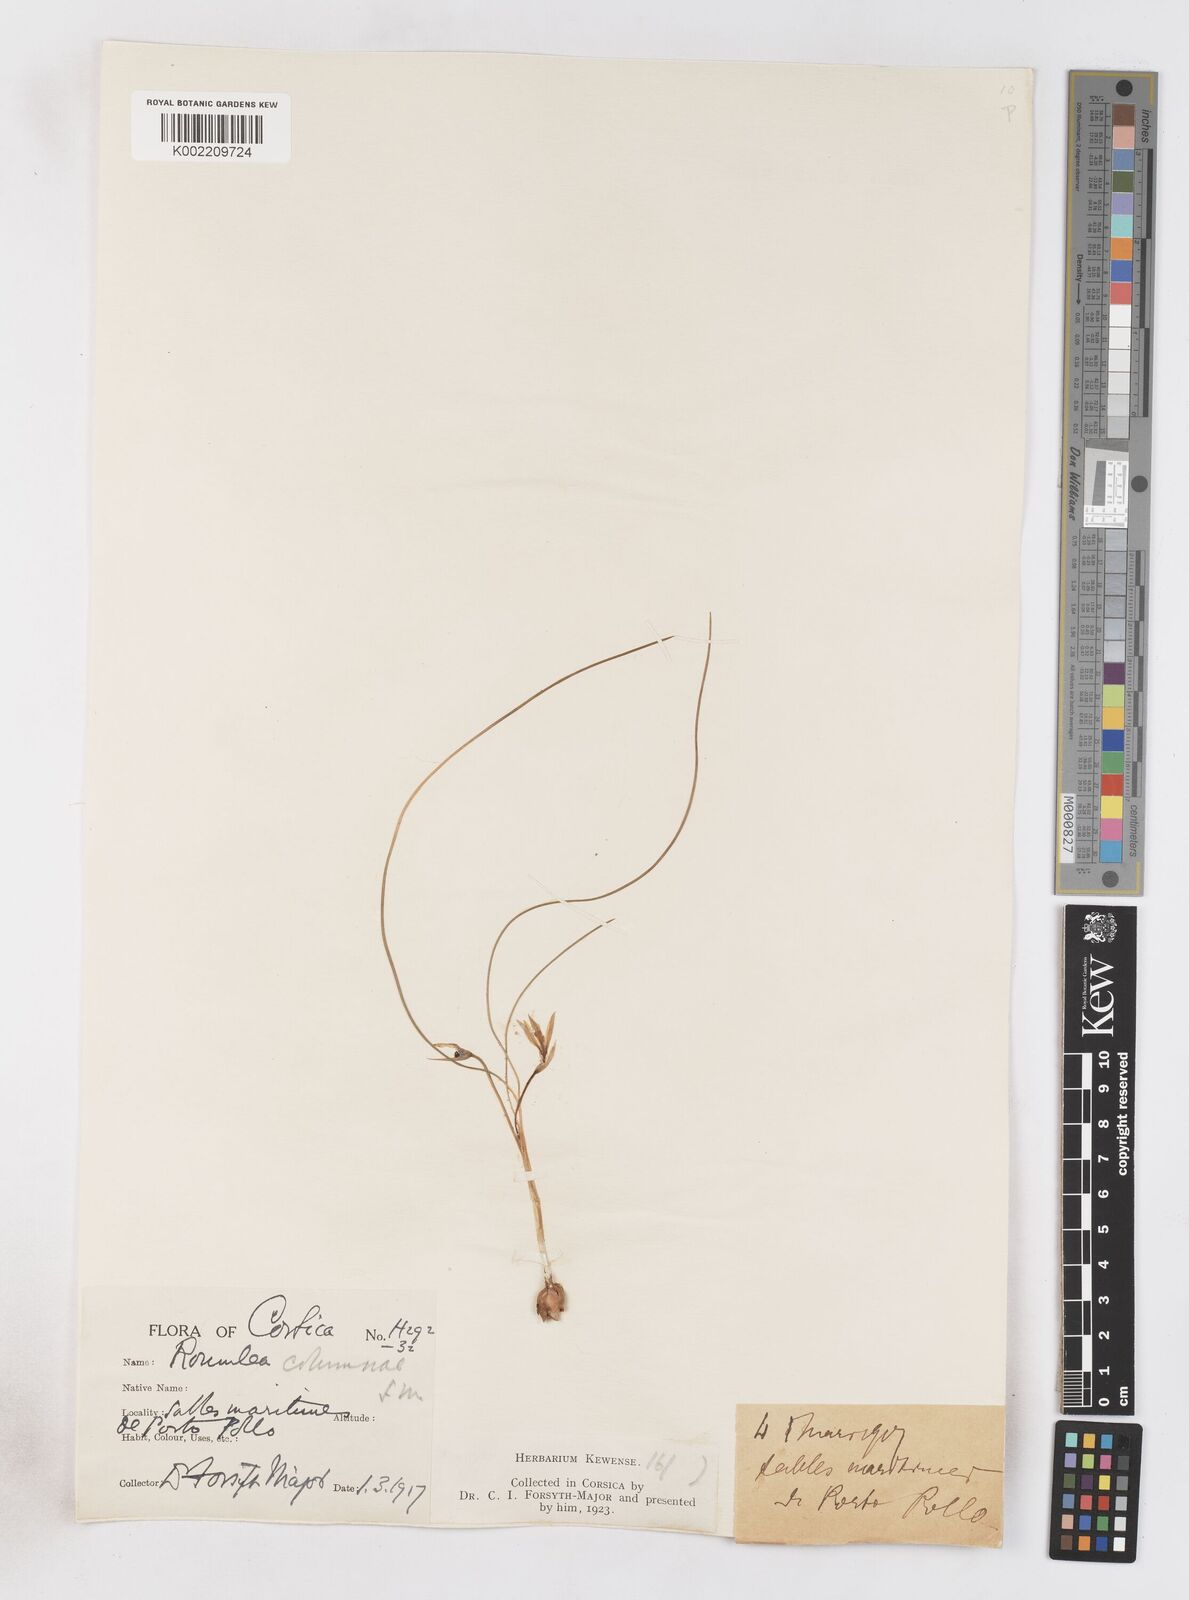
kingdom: Plantae
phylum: Tracheophyta
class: Liliopsida
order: Asparagales
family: Iridaceae
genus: Romulea
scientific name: Romulea columnae
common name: Sand-crocus
